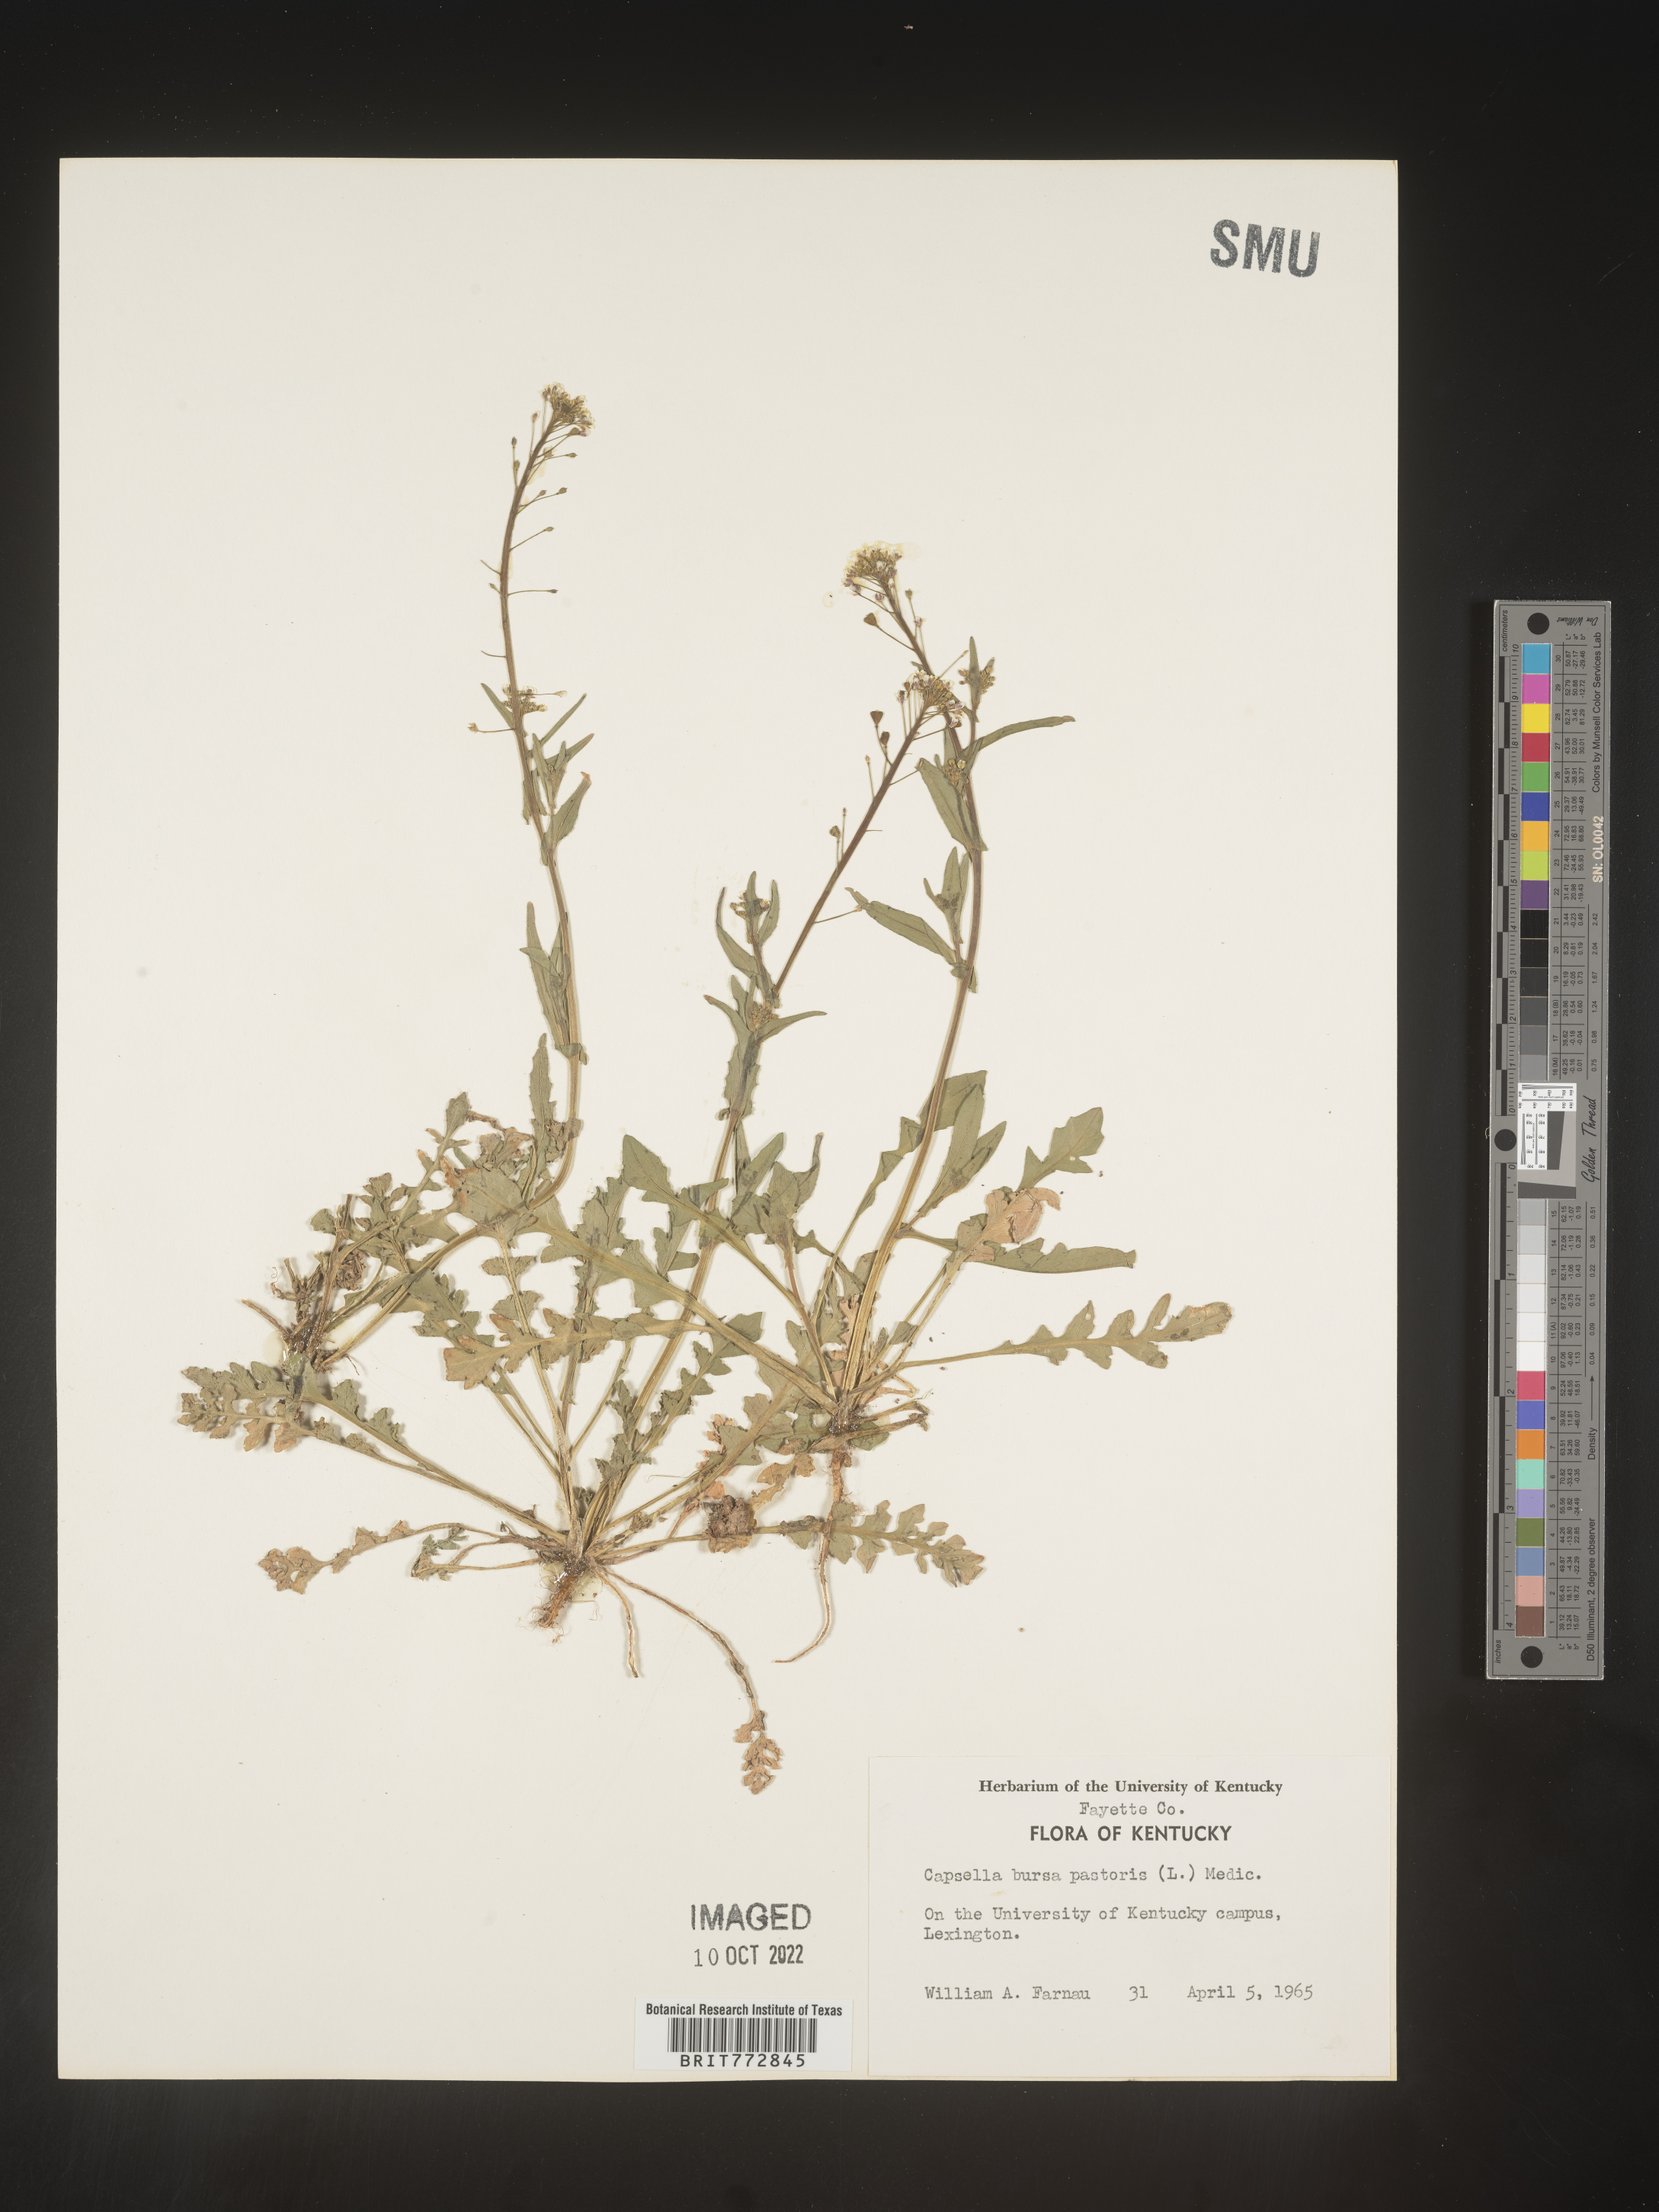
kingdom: Plantae
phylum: Tracheophyta
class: Magnoliopsida
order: Brassicales
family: Brassicaceae
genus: Capsella
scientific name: Capsella bursa-pastoris
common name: Shepherd's purse
